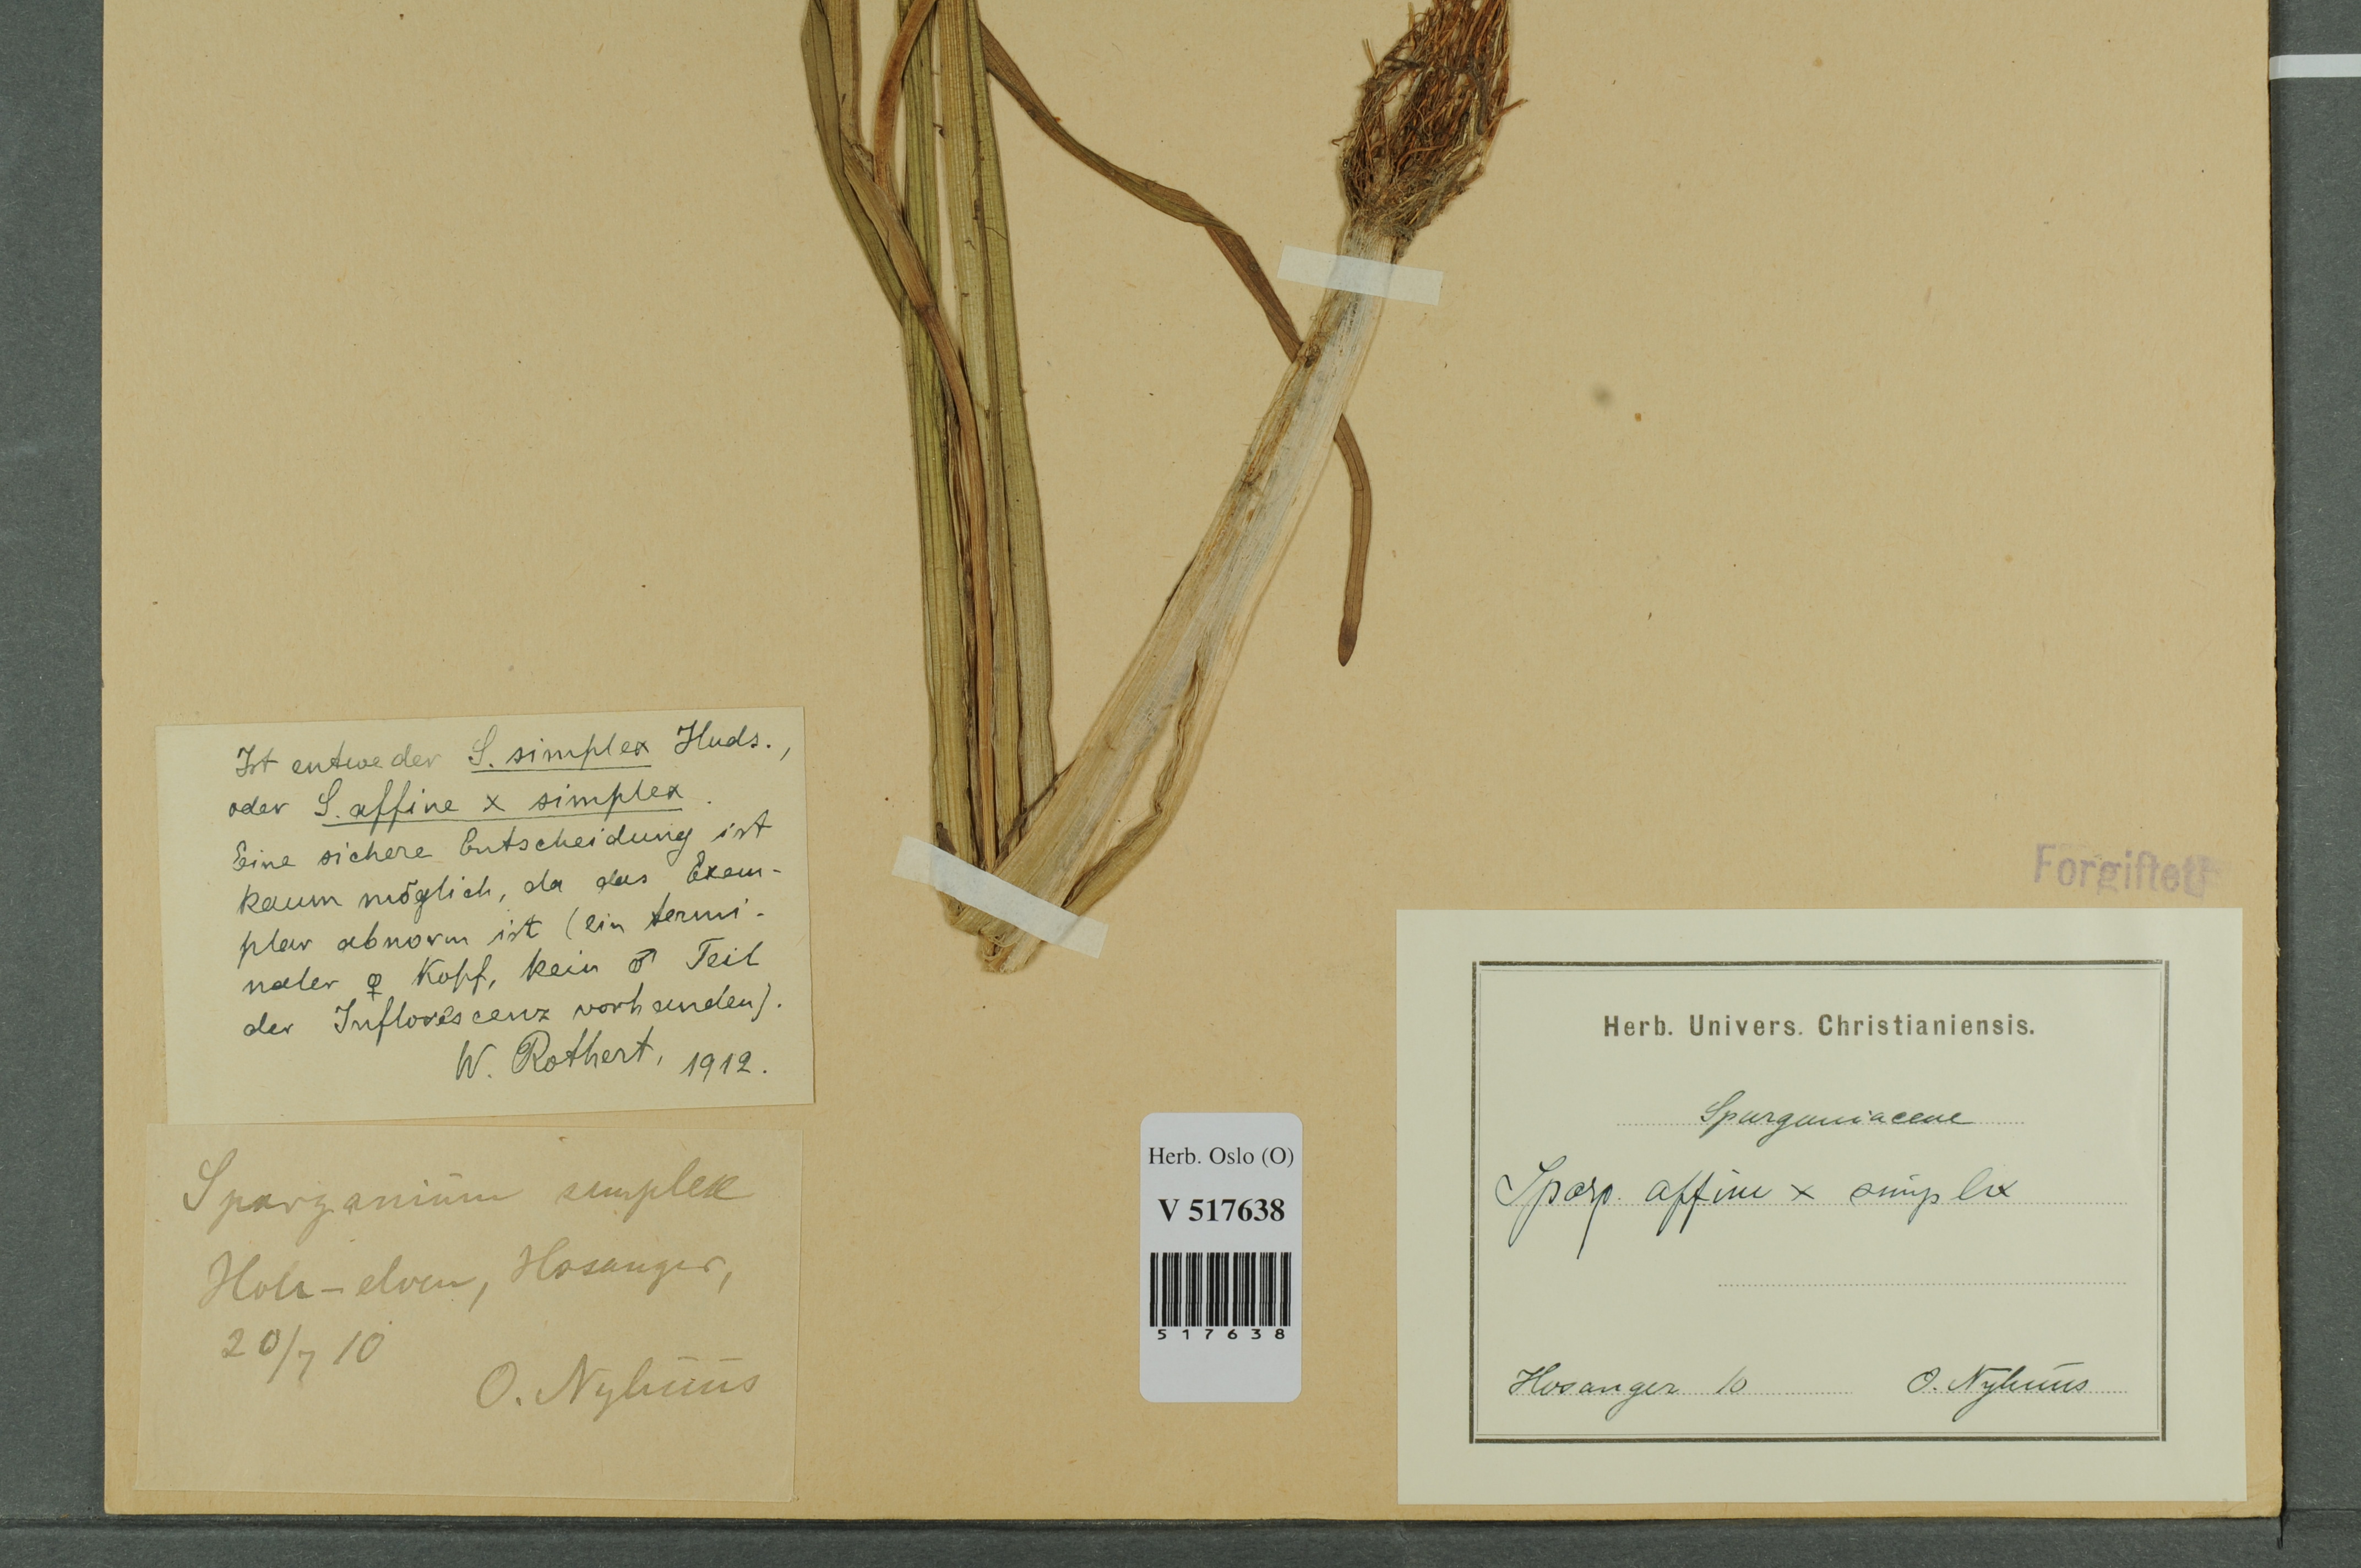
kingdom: Plantae
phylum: Tracheophyta
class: Liliopsida
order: Poales
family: Typhaceae
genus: Sparganium
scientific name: Sparganium
